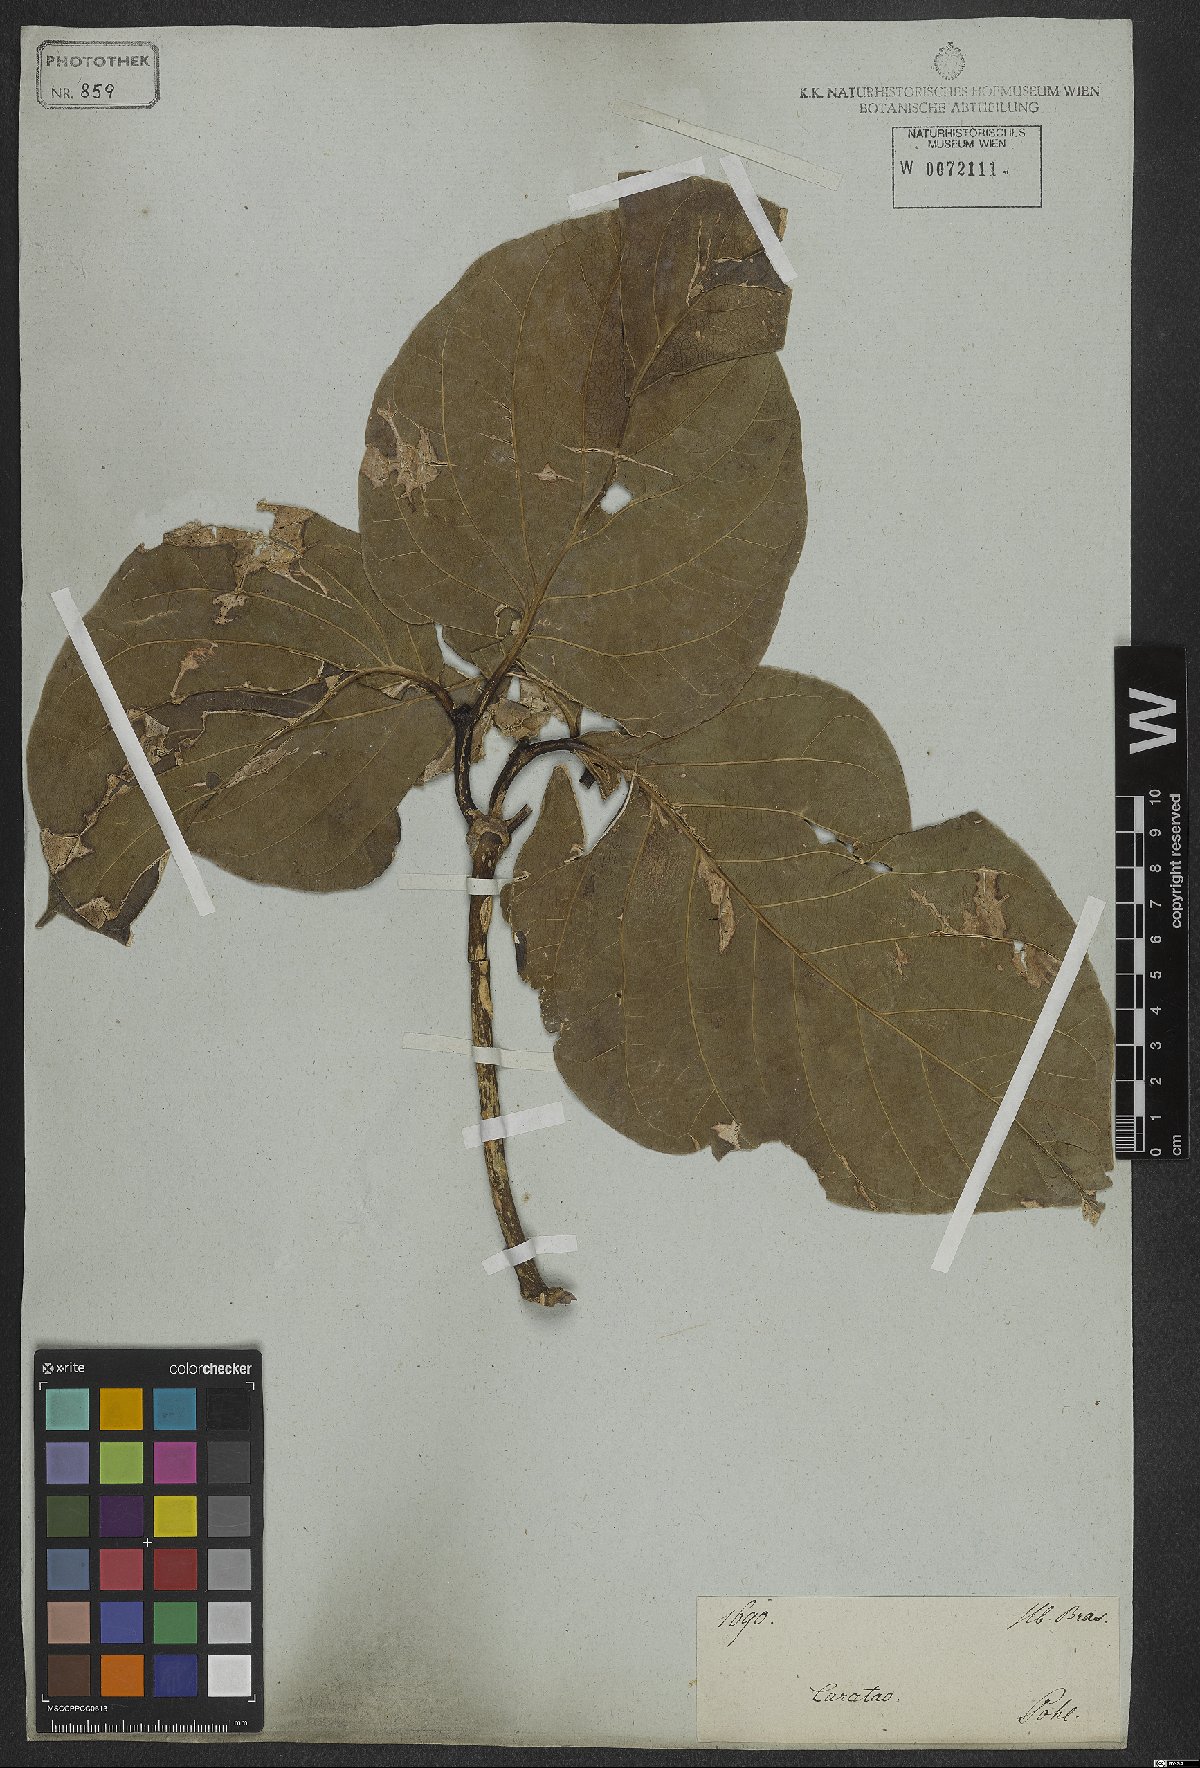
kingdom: Plantae
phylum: Tracheophyta
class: Magnoliopsida
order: Gentianales
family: Rubiaceae
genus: Coussarea
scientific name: Coussarea platyphylla
